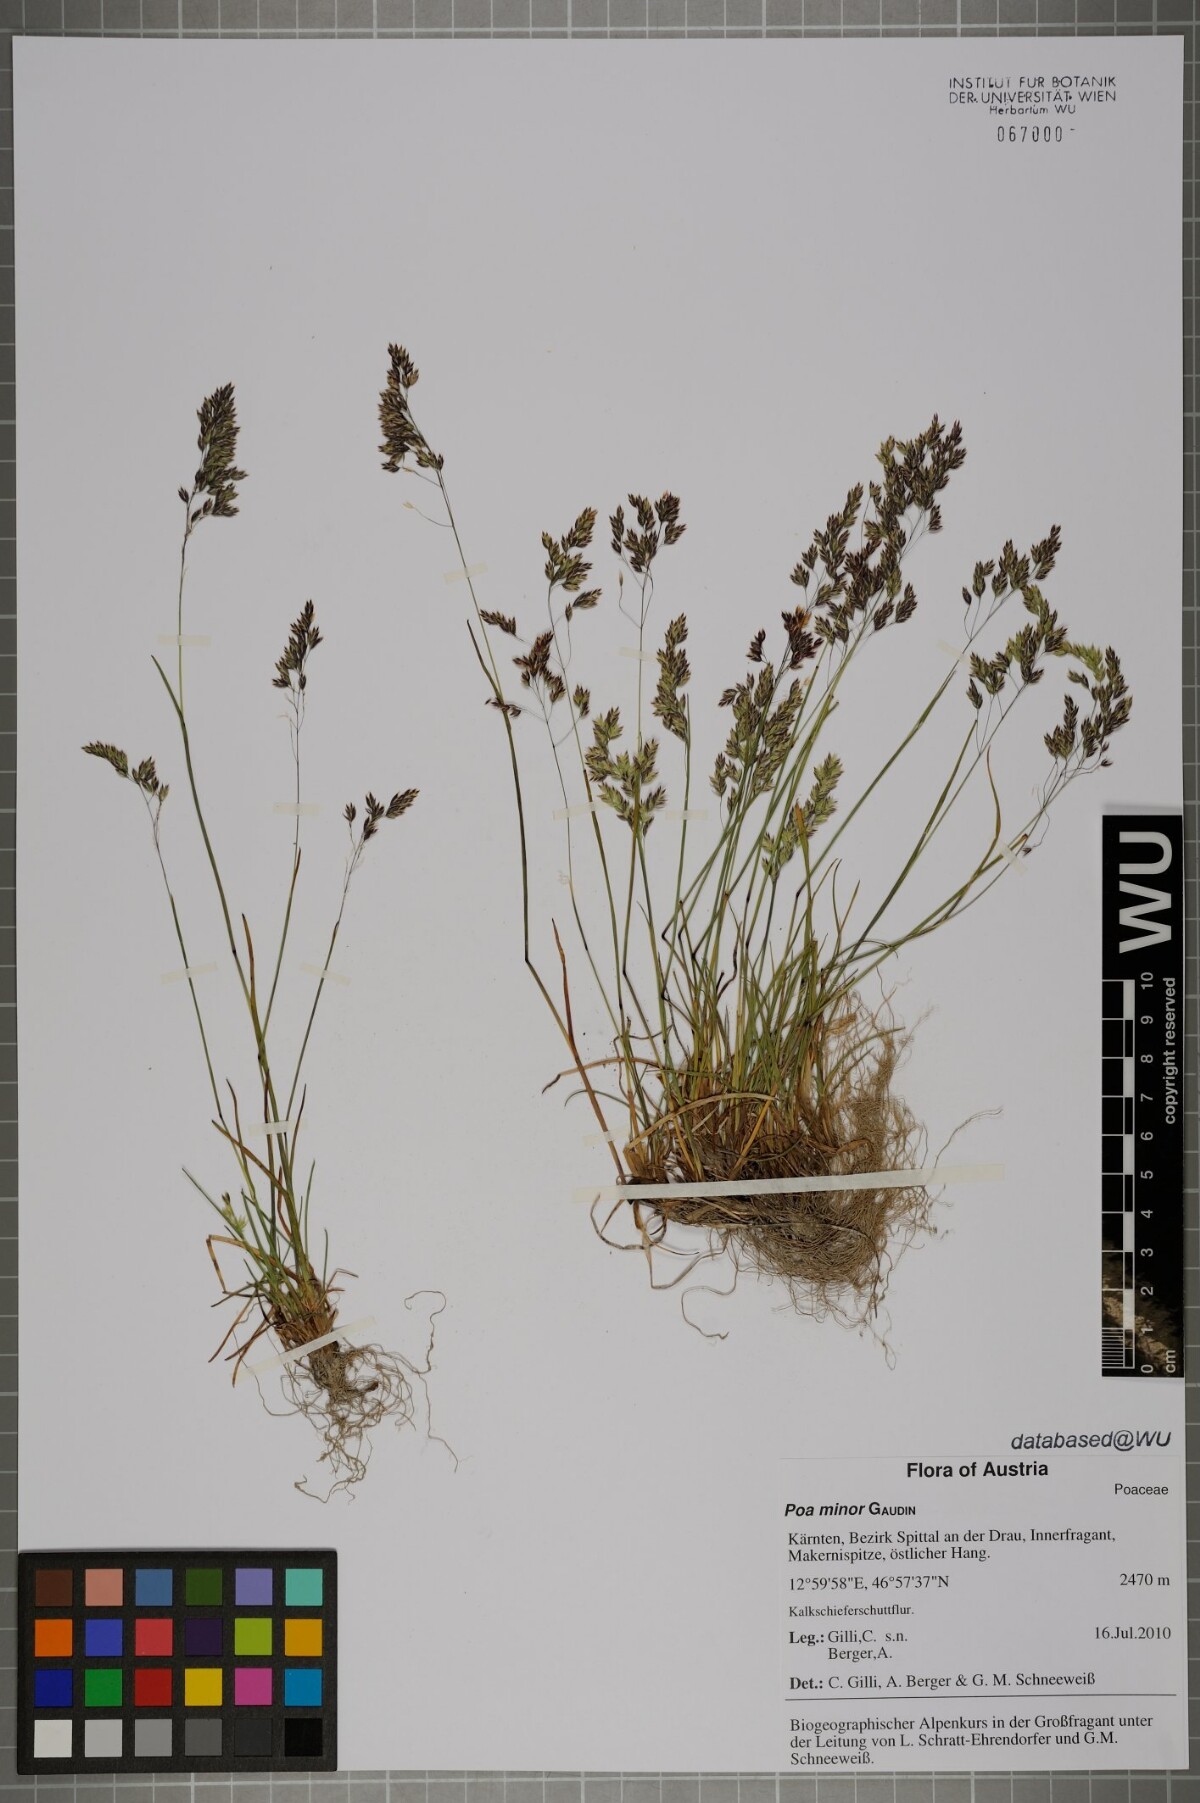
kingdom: Plantae
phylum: Tracheophyta
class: Liliopsida
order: Poales
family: Poaceae
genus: Poa
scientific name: Poa minor
